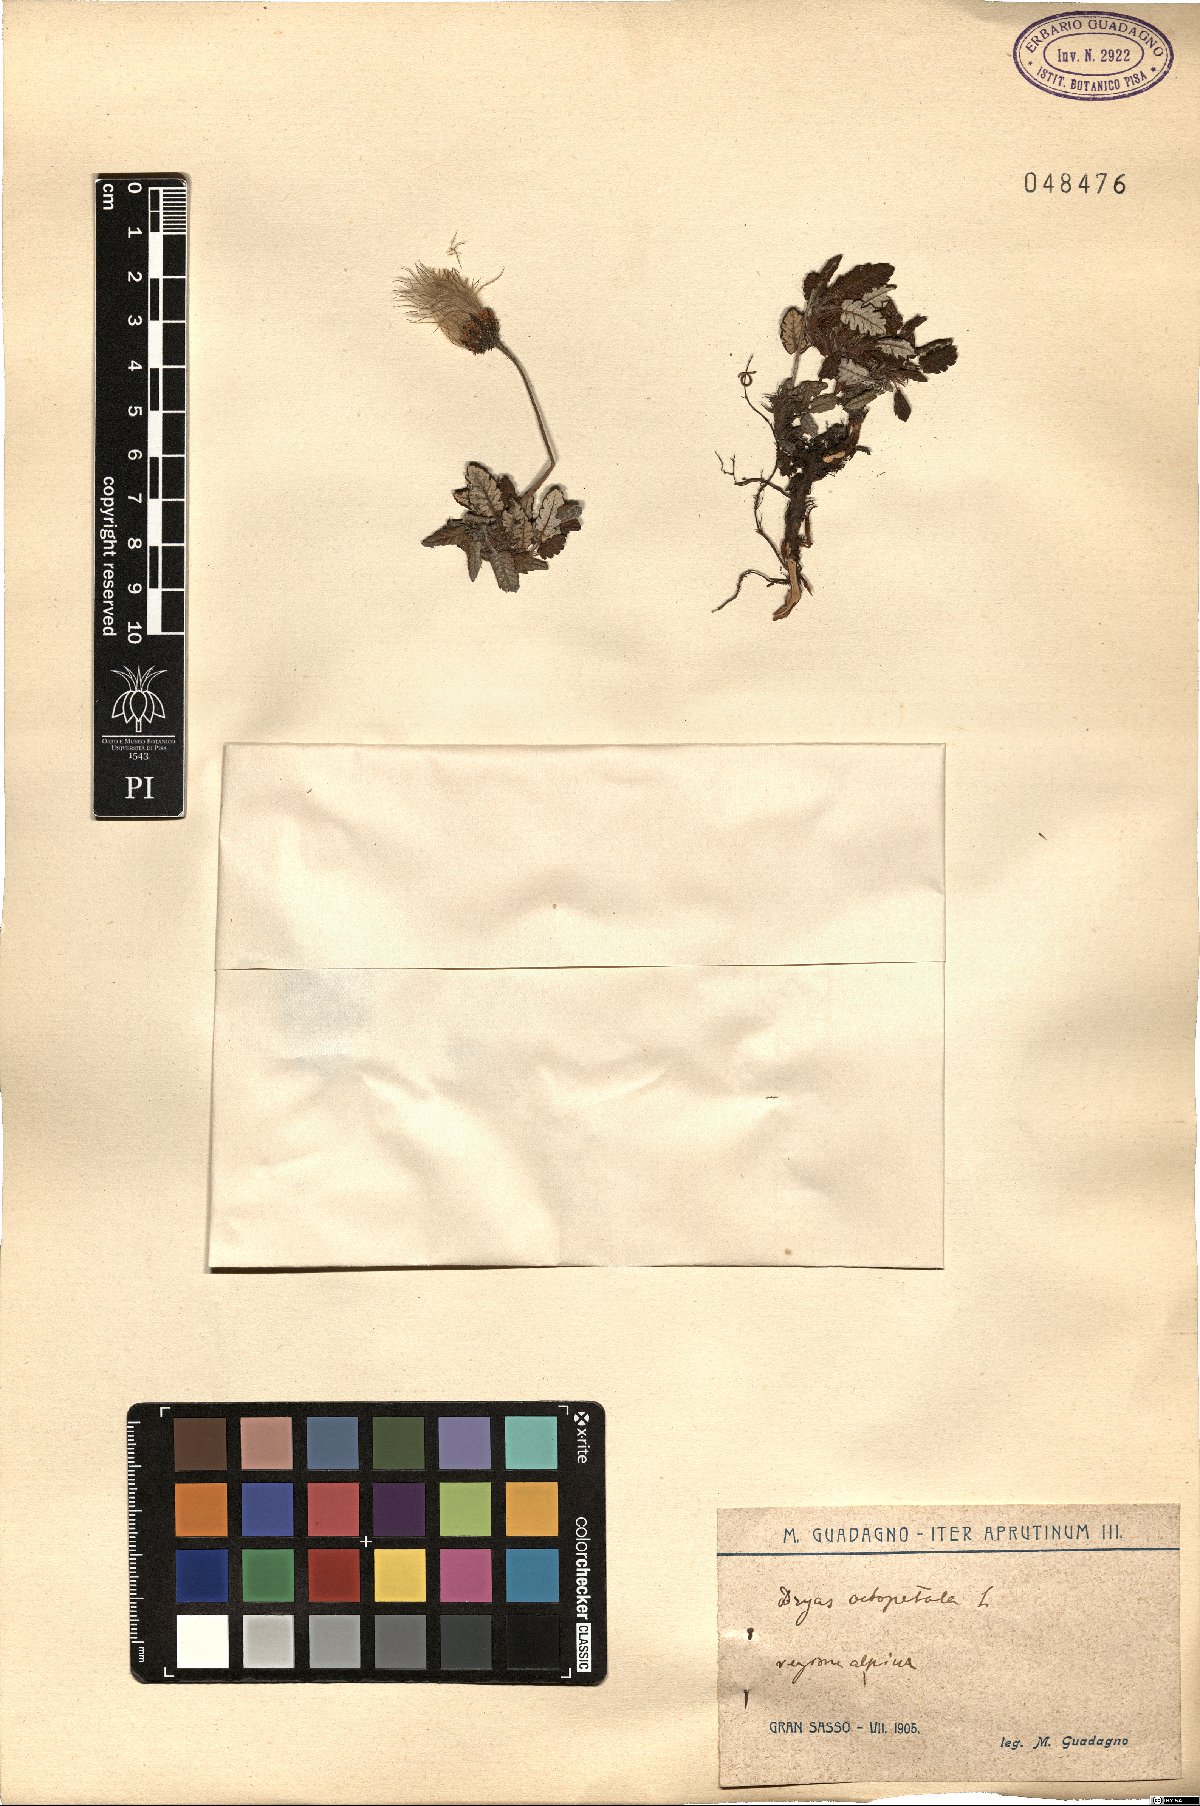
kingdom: Plantae
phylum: Tracheophyta
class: Magnoliopsida
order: Rosales
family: Rosaceae
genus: Dryas
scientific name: Dryas octopetala
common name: Eight-petal mountain-avens
